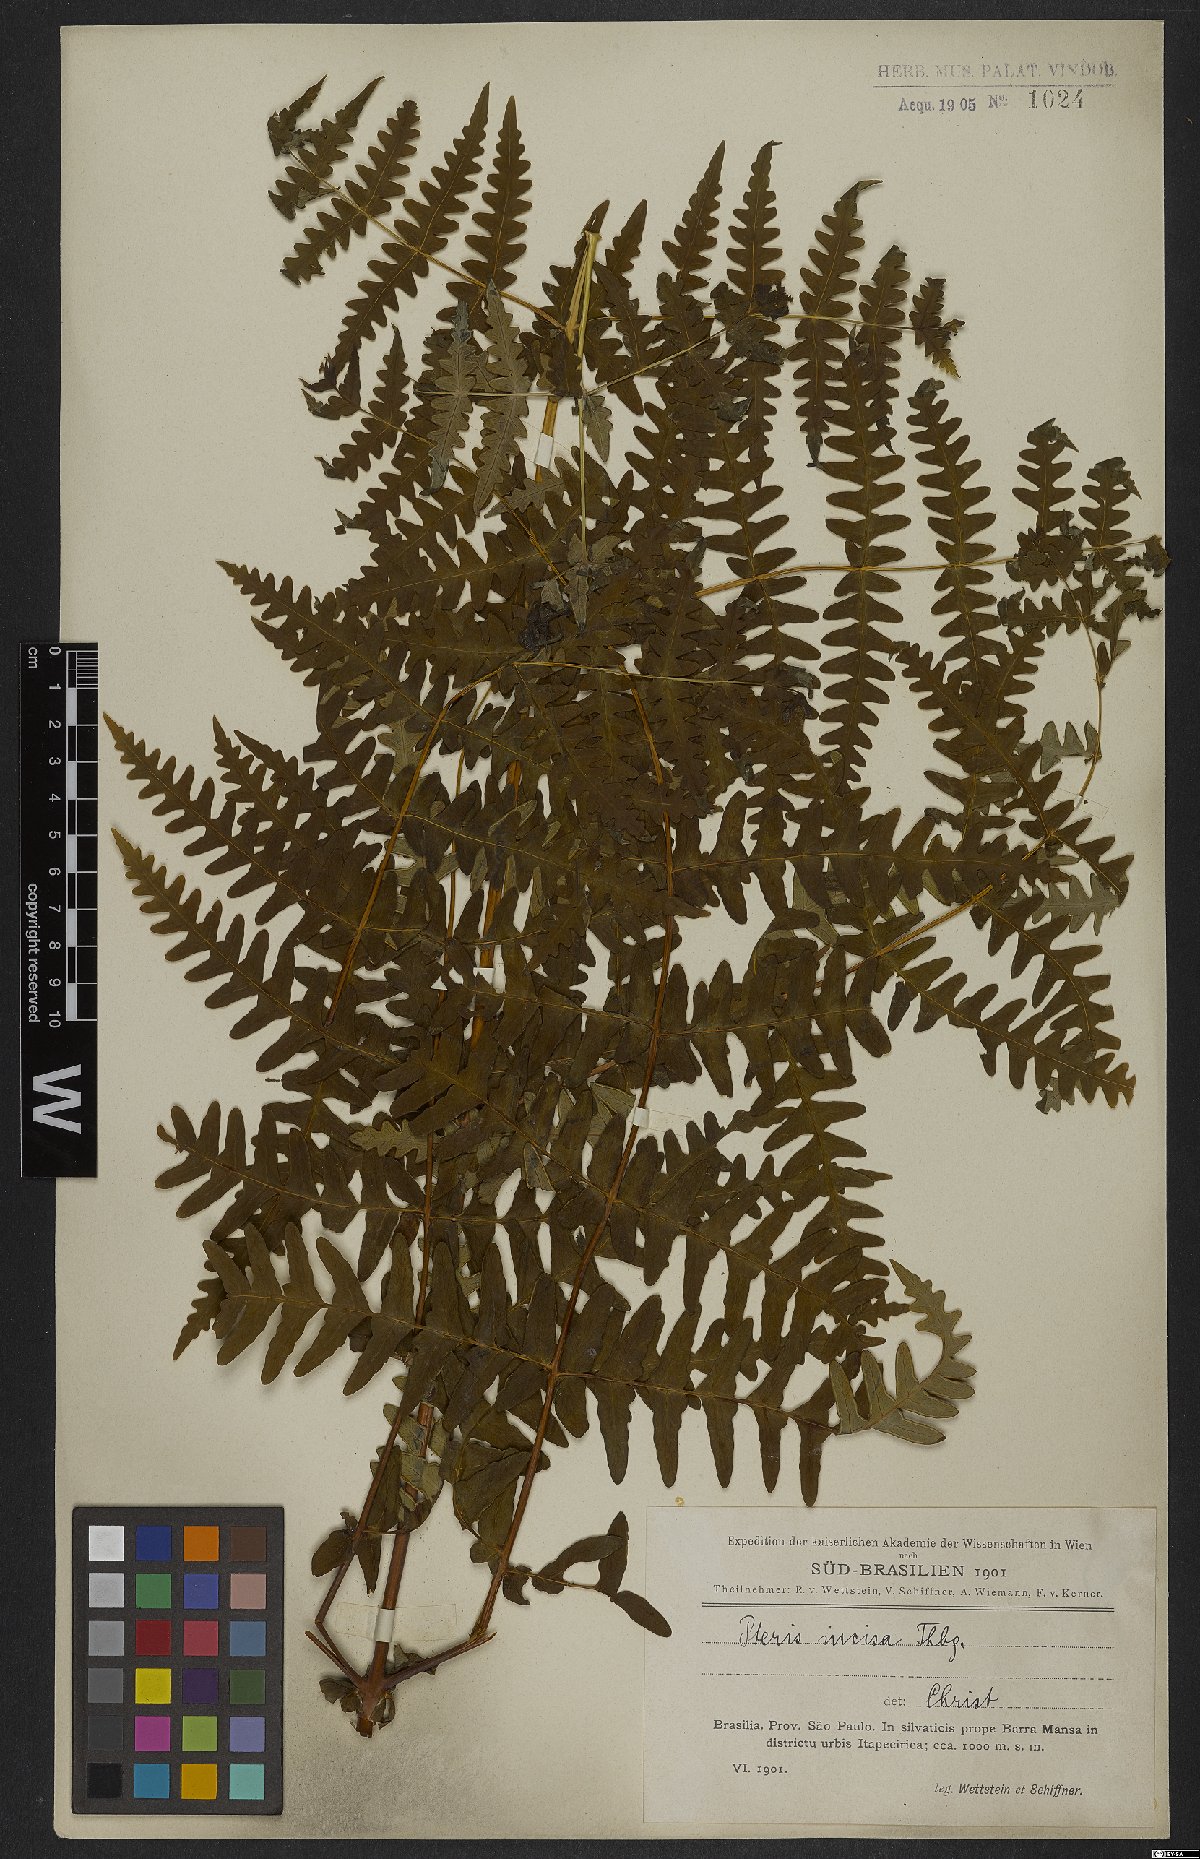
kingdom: Plantae
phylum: Tracheophyta
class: Polypodiopsida
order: Polypodiales
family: Dennstaedtiaceae
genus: Histiopteris
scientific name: Histiopteris incisa
